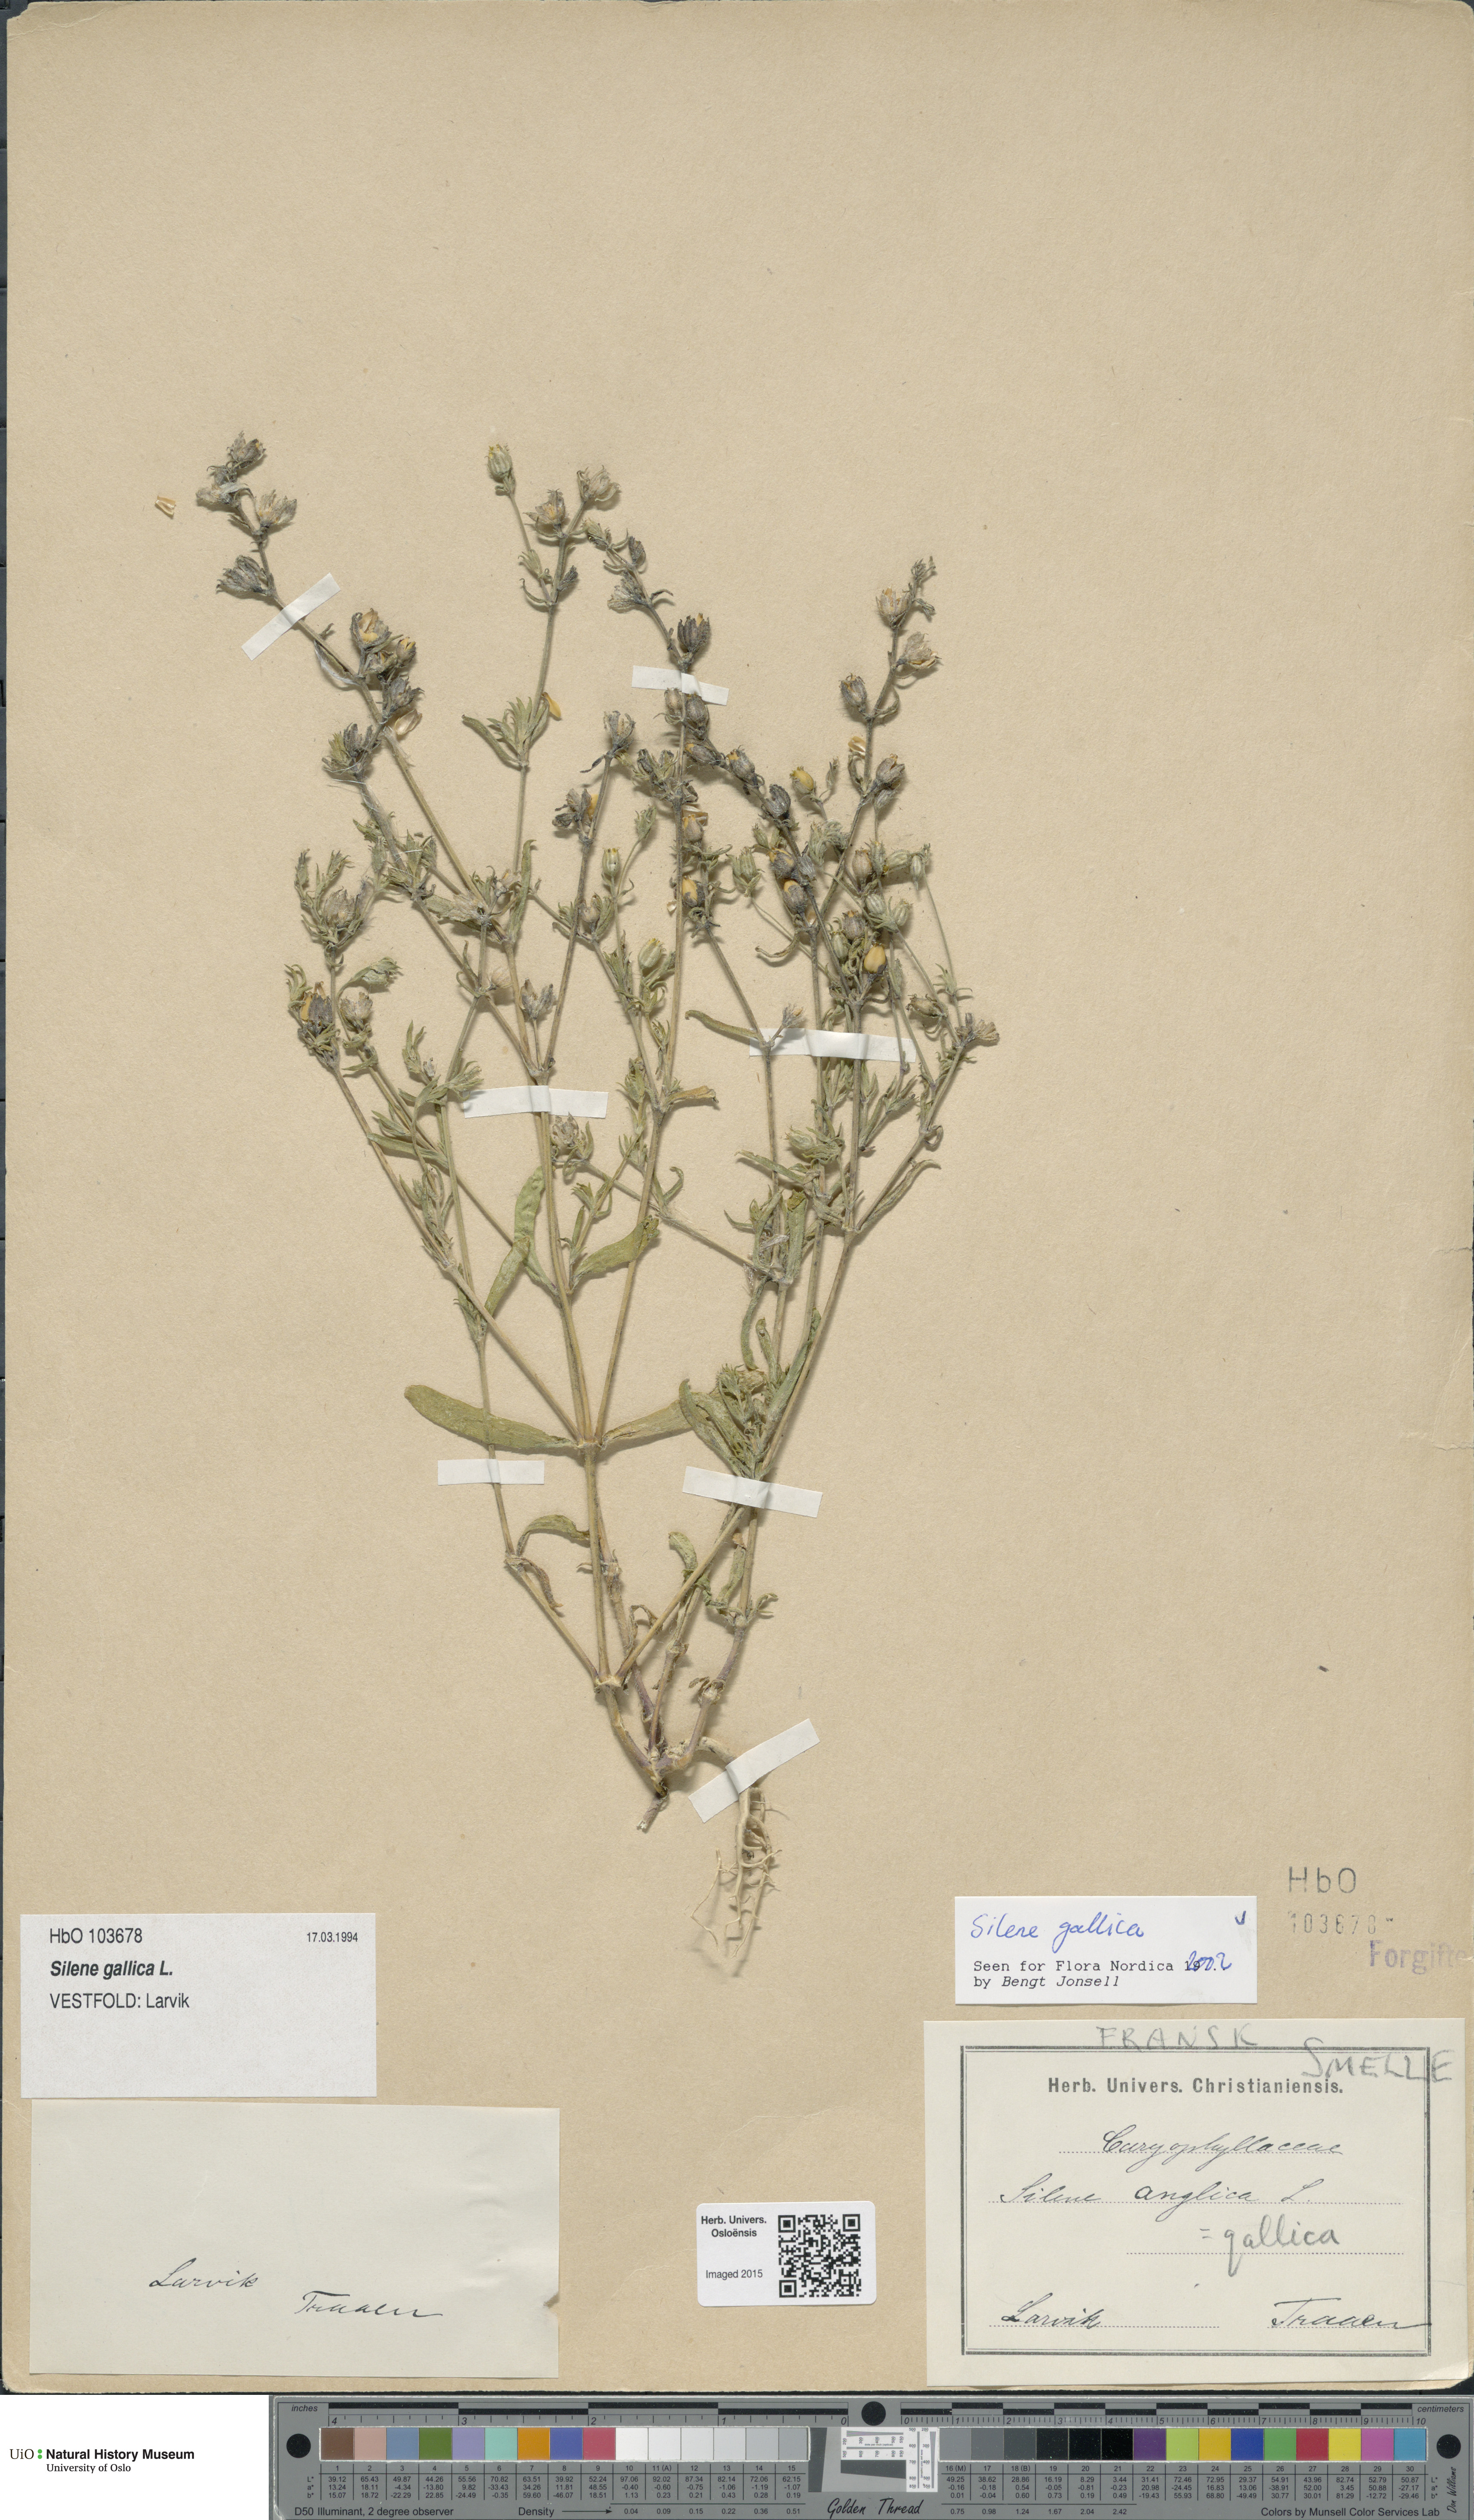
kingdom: Plantae
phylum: Tracheophyta
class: Magnoliopsida
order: Caryophyllales
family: Caryophyllaceae
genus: Silene
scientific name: Silene gallica
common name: Small-flowered catchfly
